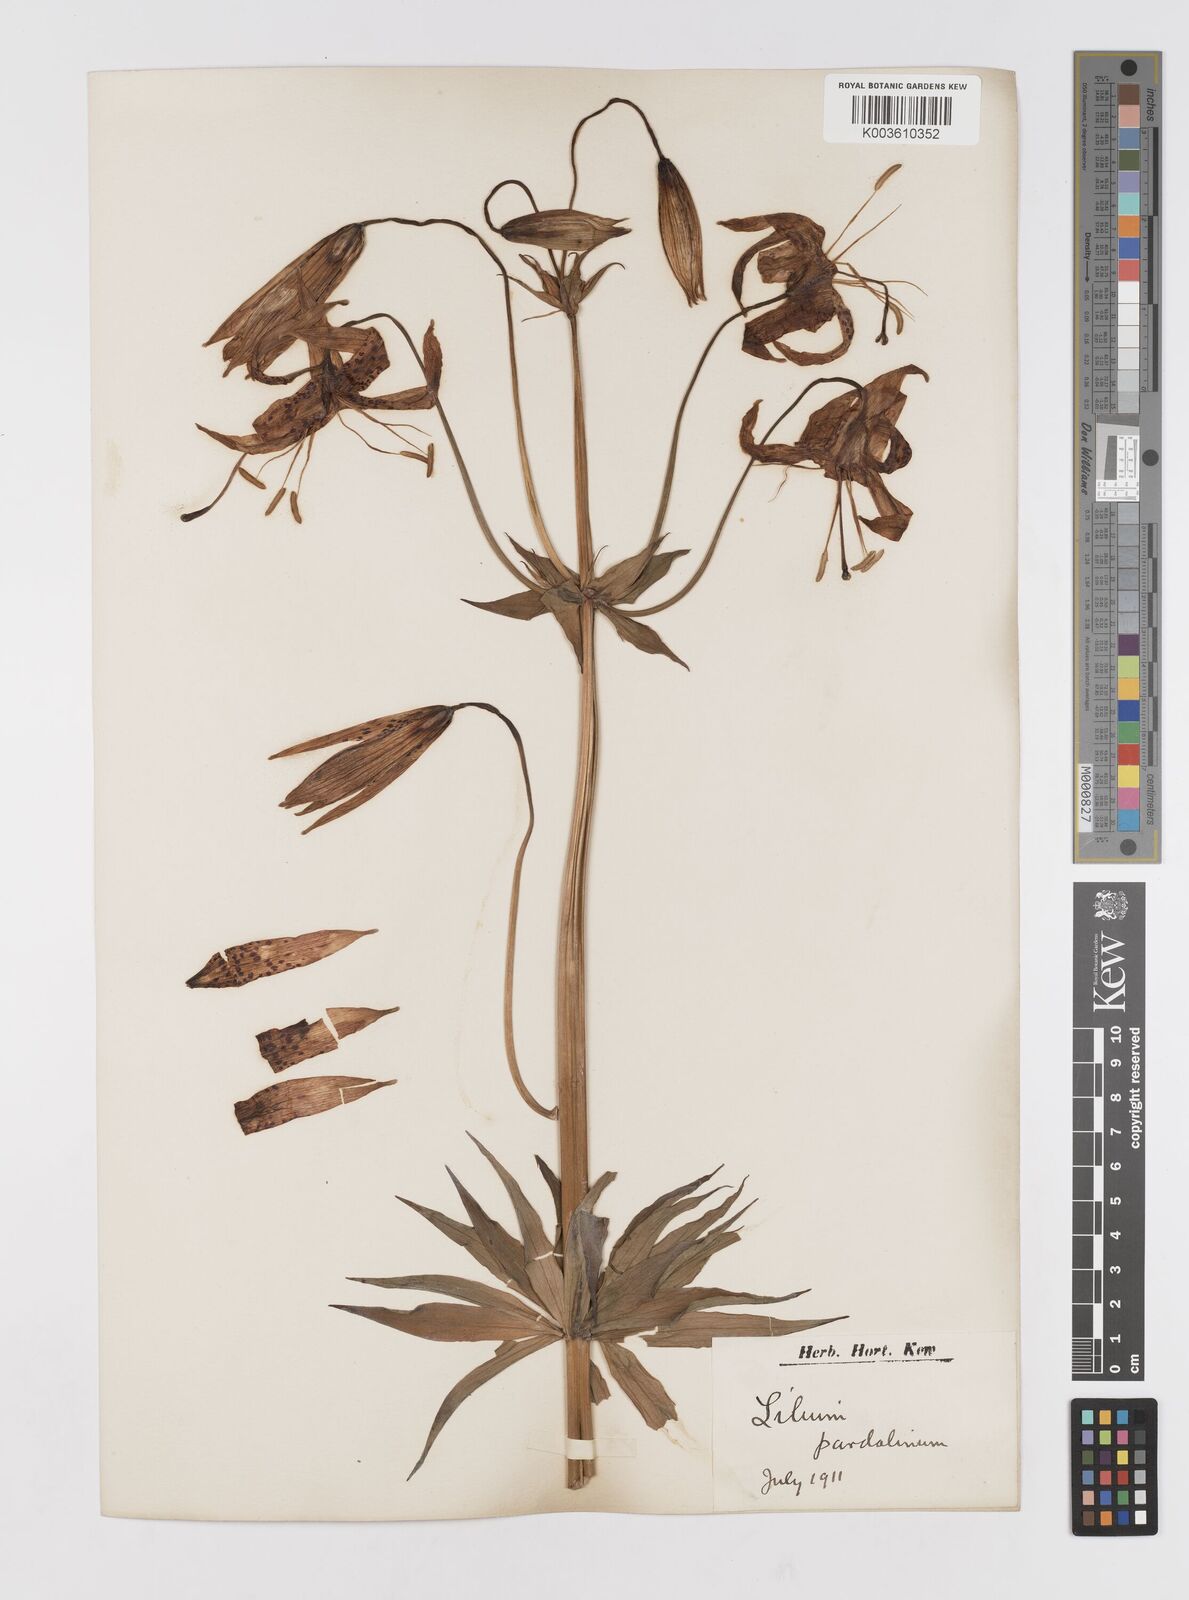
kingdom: Plantae
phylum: Tracheophyta
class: Liliopsida
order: Liliales
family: Liliaceae
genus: Lilium
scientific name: Lilium pardalinum
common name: Panther lily
